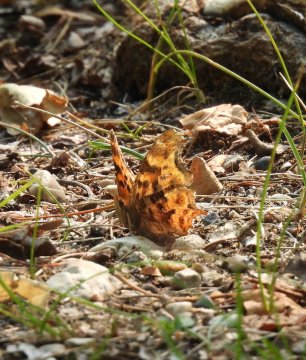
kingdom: Animalia
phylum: Arthropoda
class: Insecta
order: Lepidoptera
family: Nymphalidae
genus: Polygonia
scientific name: Polygonia satyrus
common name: Satyr Comma
